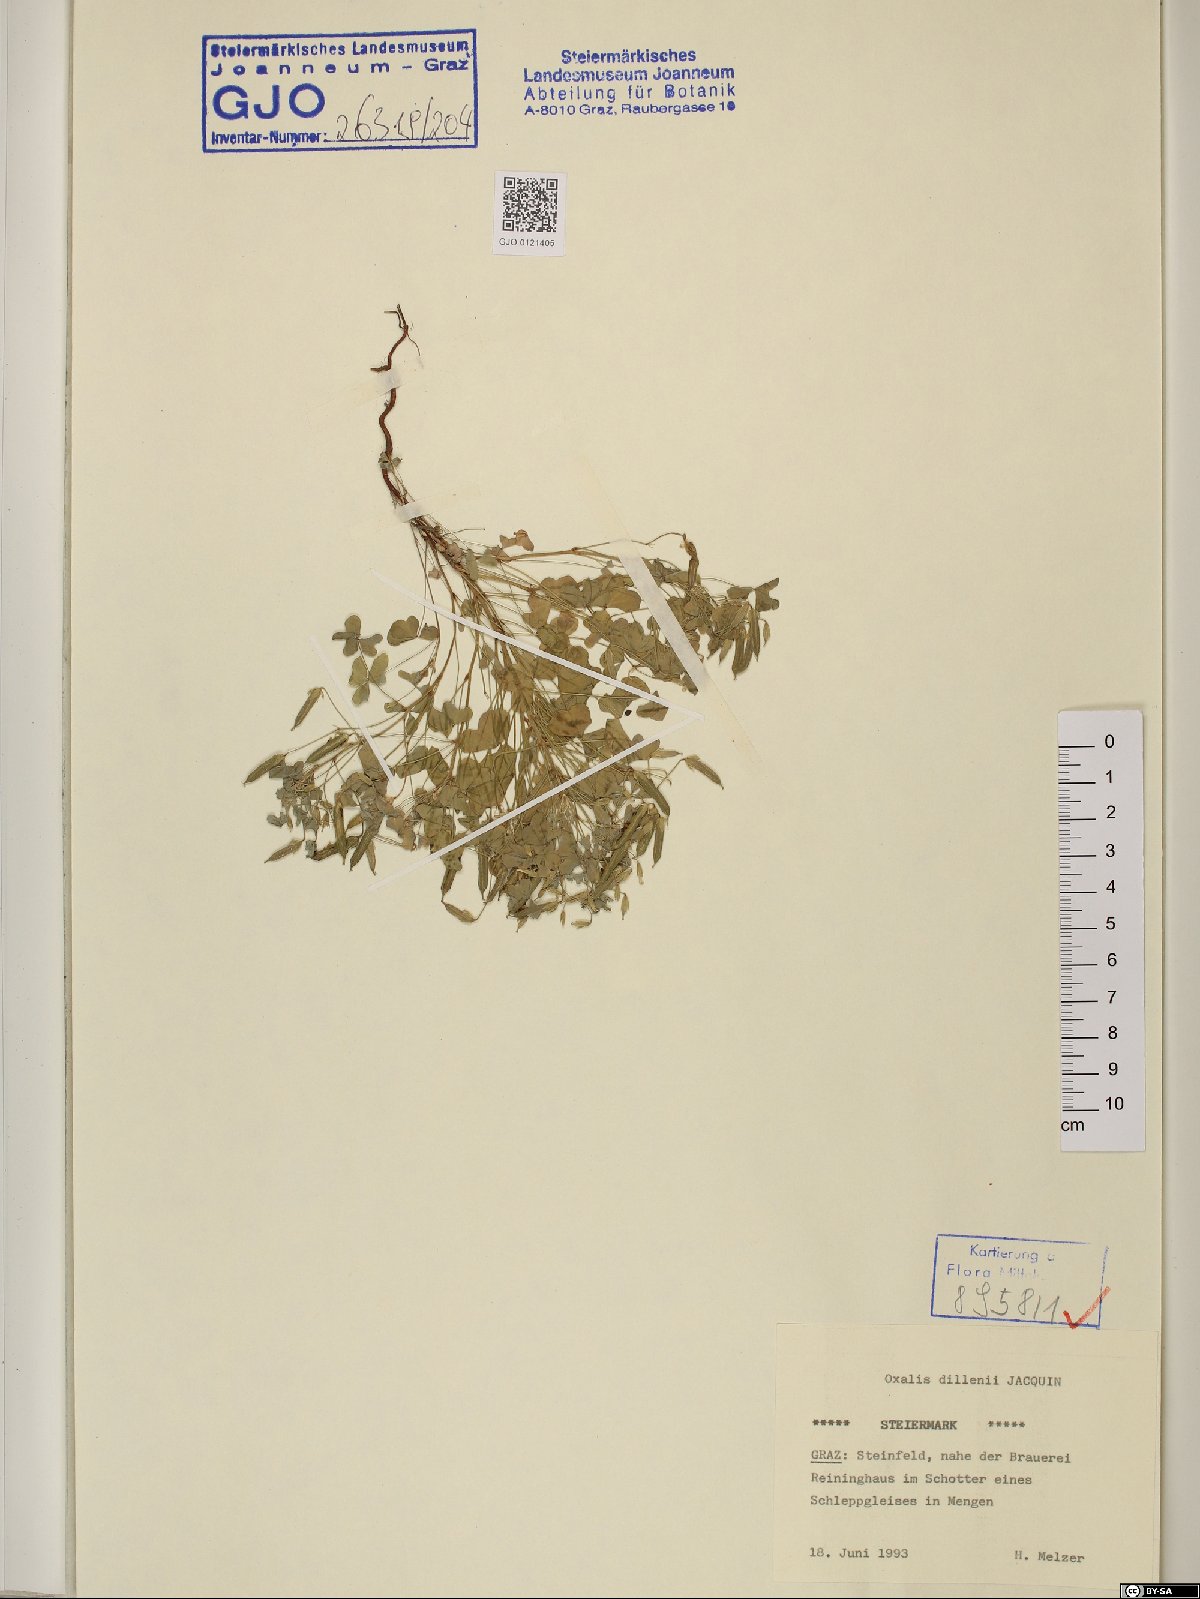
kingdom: Plantae
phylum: Tracheophyta
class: Magnoliopsida
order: Oxalidales
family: Oxalidaceae
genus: Oxalis
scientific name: Oxalis dillenii
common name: Sussex yellow-sorrel
